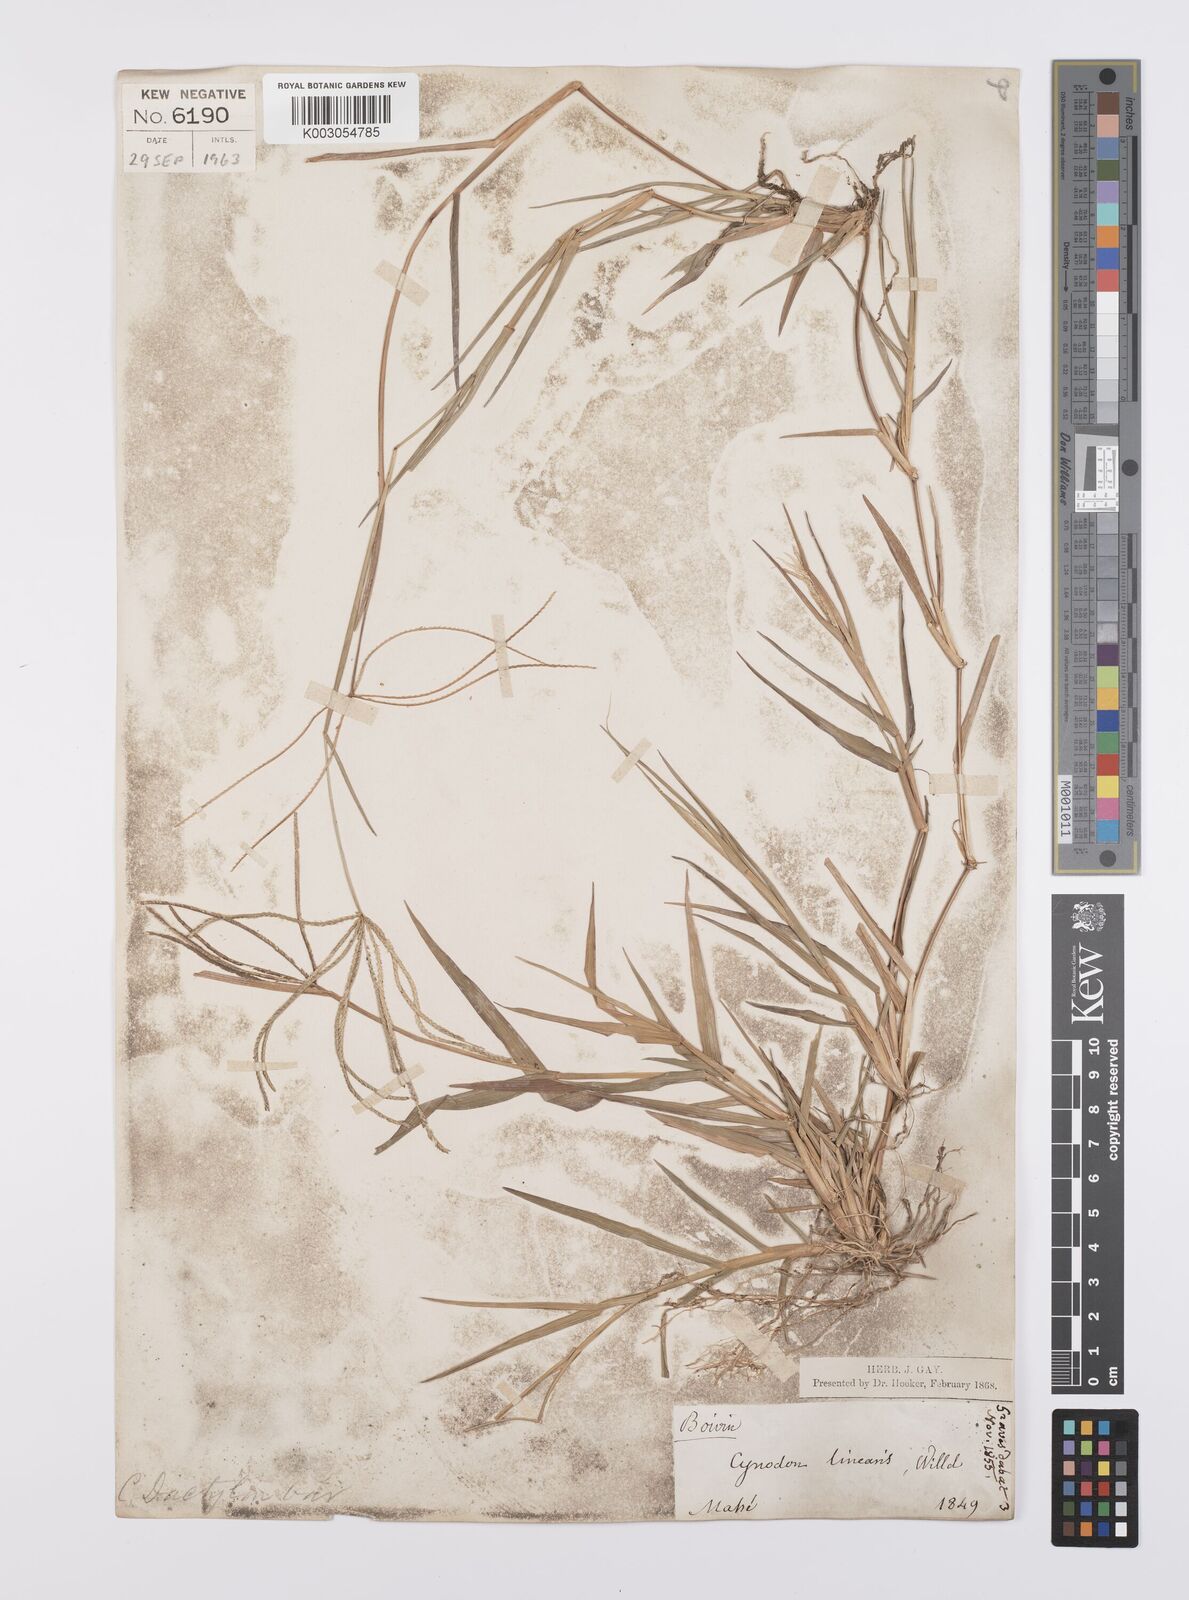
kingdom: Plantae
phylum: Tracheophyta
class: Liliopsida
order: Poales
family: Poaceae
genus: Cynodon
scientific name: Cynodon radiatus
